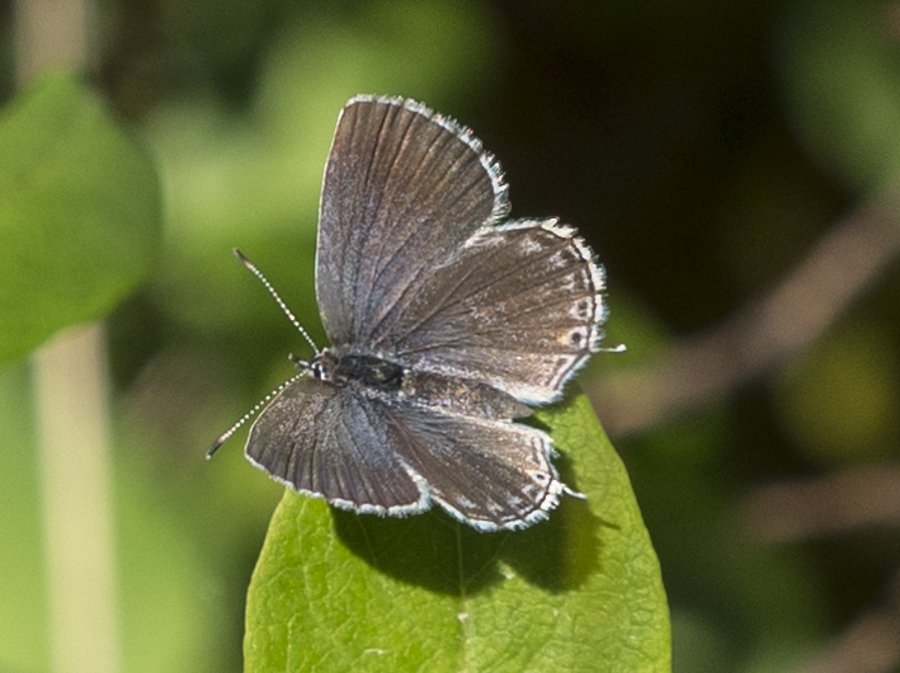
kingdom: Animalia
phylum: Arthropoda
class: Insecta
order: Lepidoptera
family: Lycaenidae
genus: Elkalyce
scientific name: Elkalyce amyntula
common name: Western Tailed-Blue
